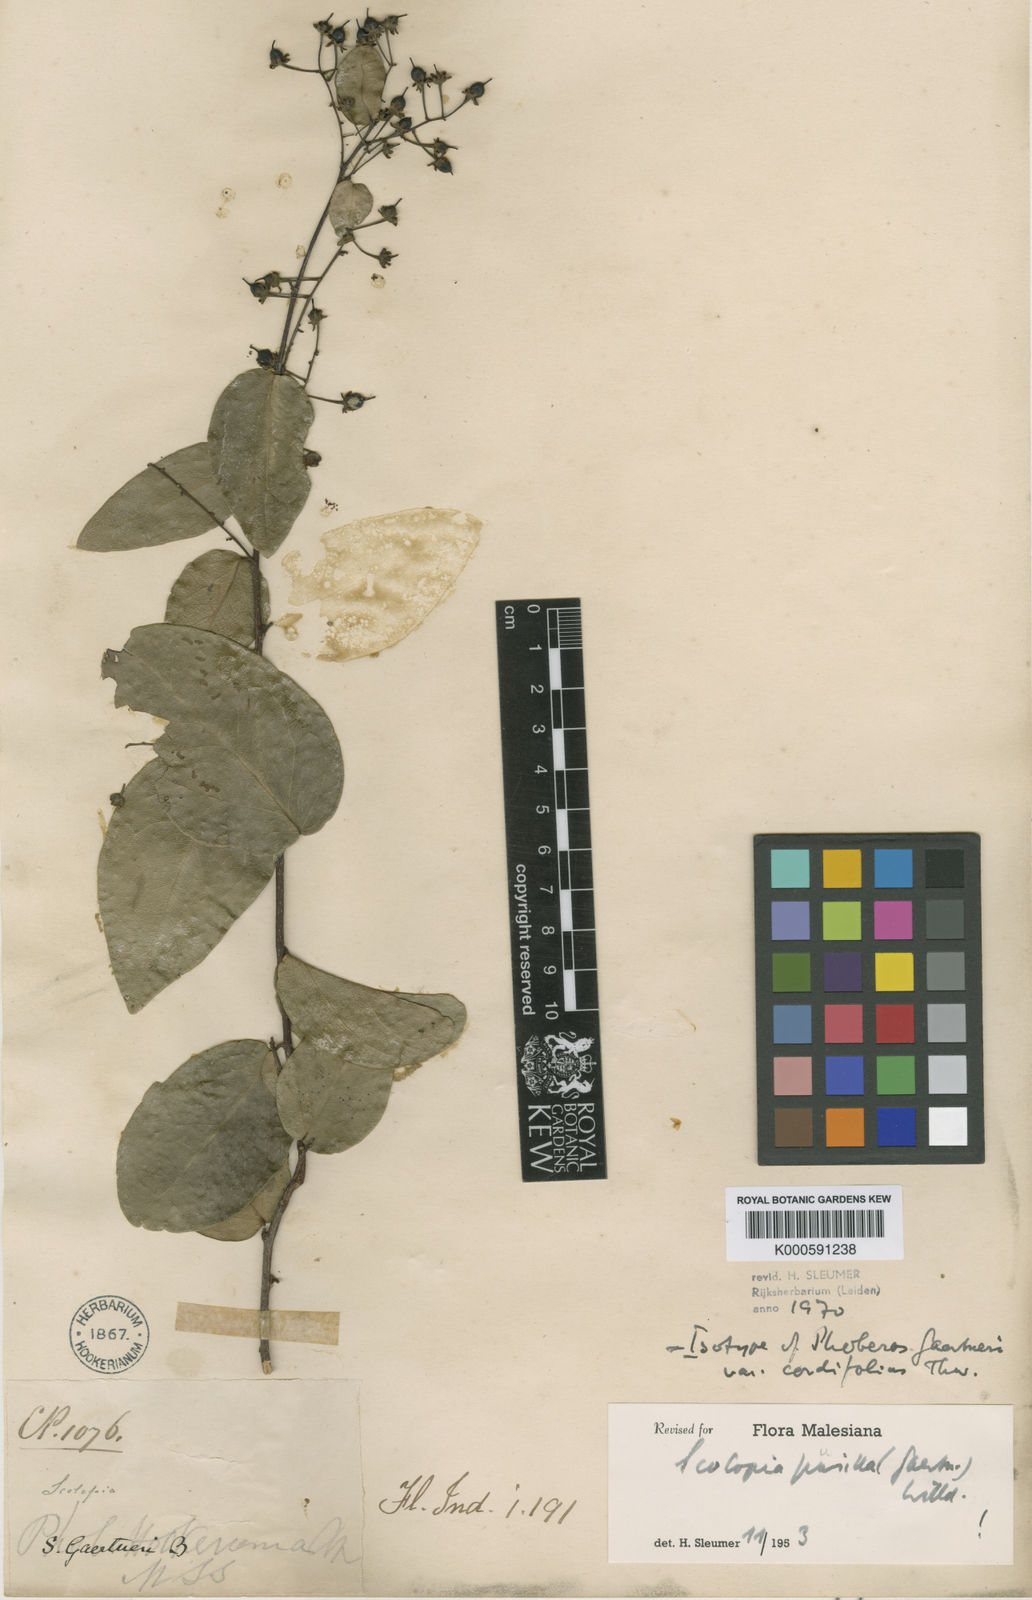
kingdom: Plantae
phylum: Tracheophyta
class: Magnoliopsida
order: Malpighiales
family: Salicaceae
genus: Scolopia
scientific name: Scolopia pusilla
